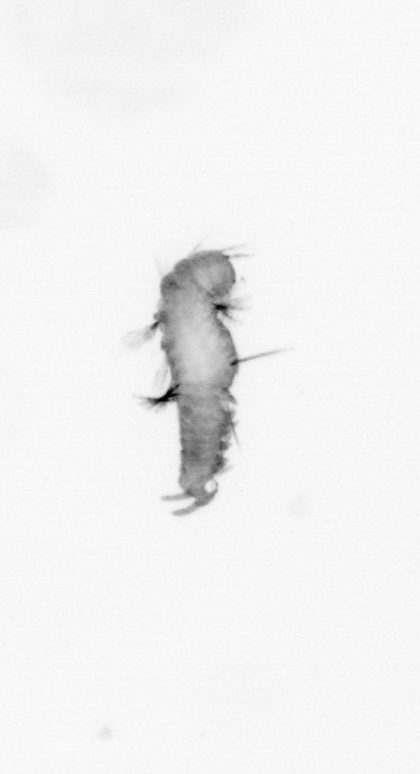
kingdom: Animalia
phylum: Annelida
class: Polychaeta
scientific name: Polychaeta
